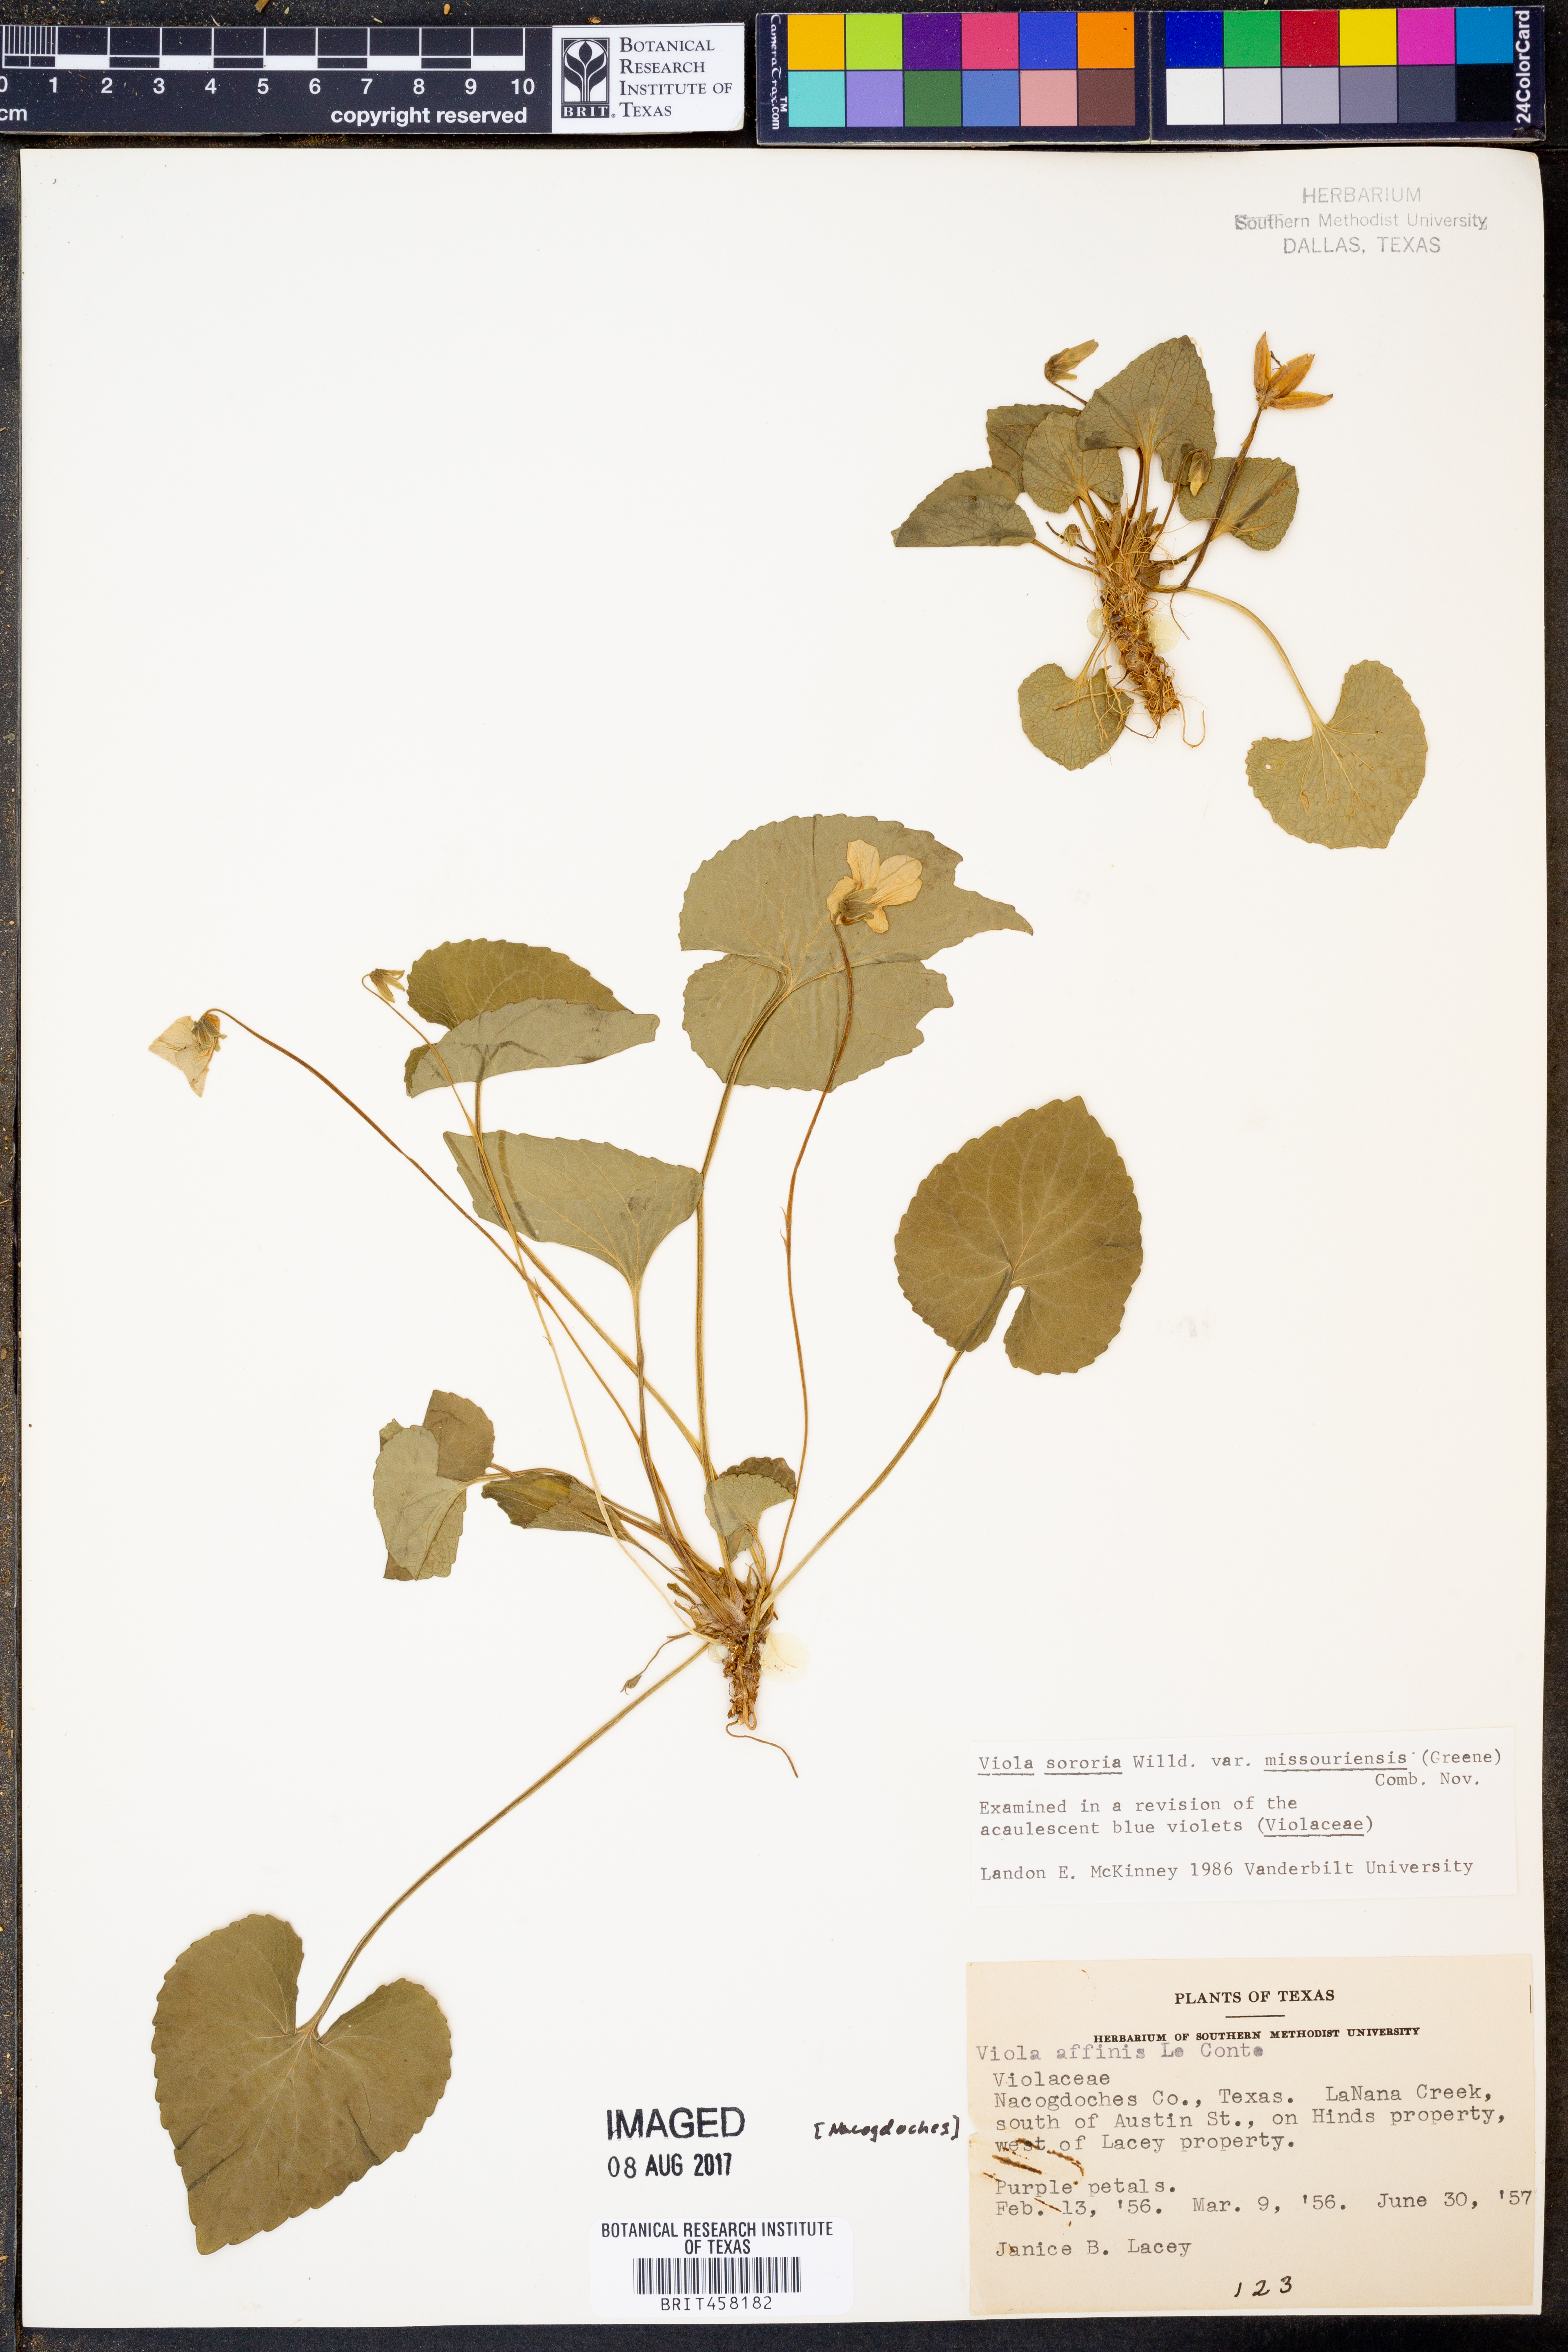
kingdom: Plantae
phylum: Tracheophyta
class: Magnoliopsida
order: Malpighiales
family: Violaceae
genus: Viola
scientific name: Viola missouriensis
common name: Missouri violet
